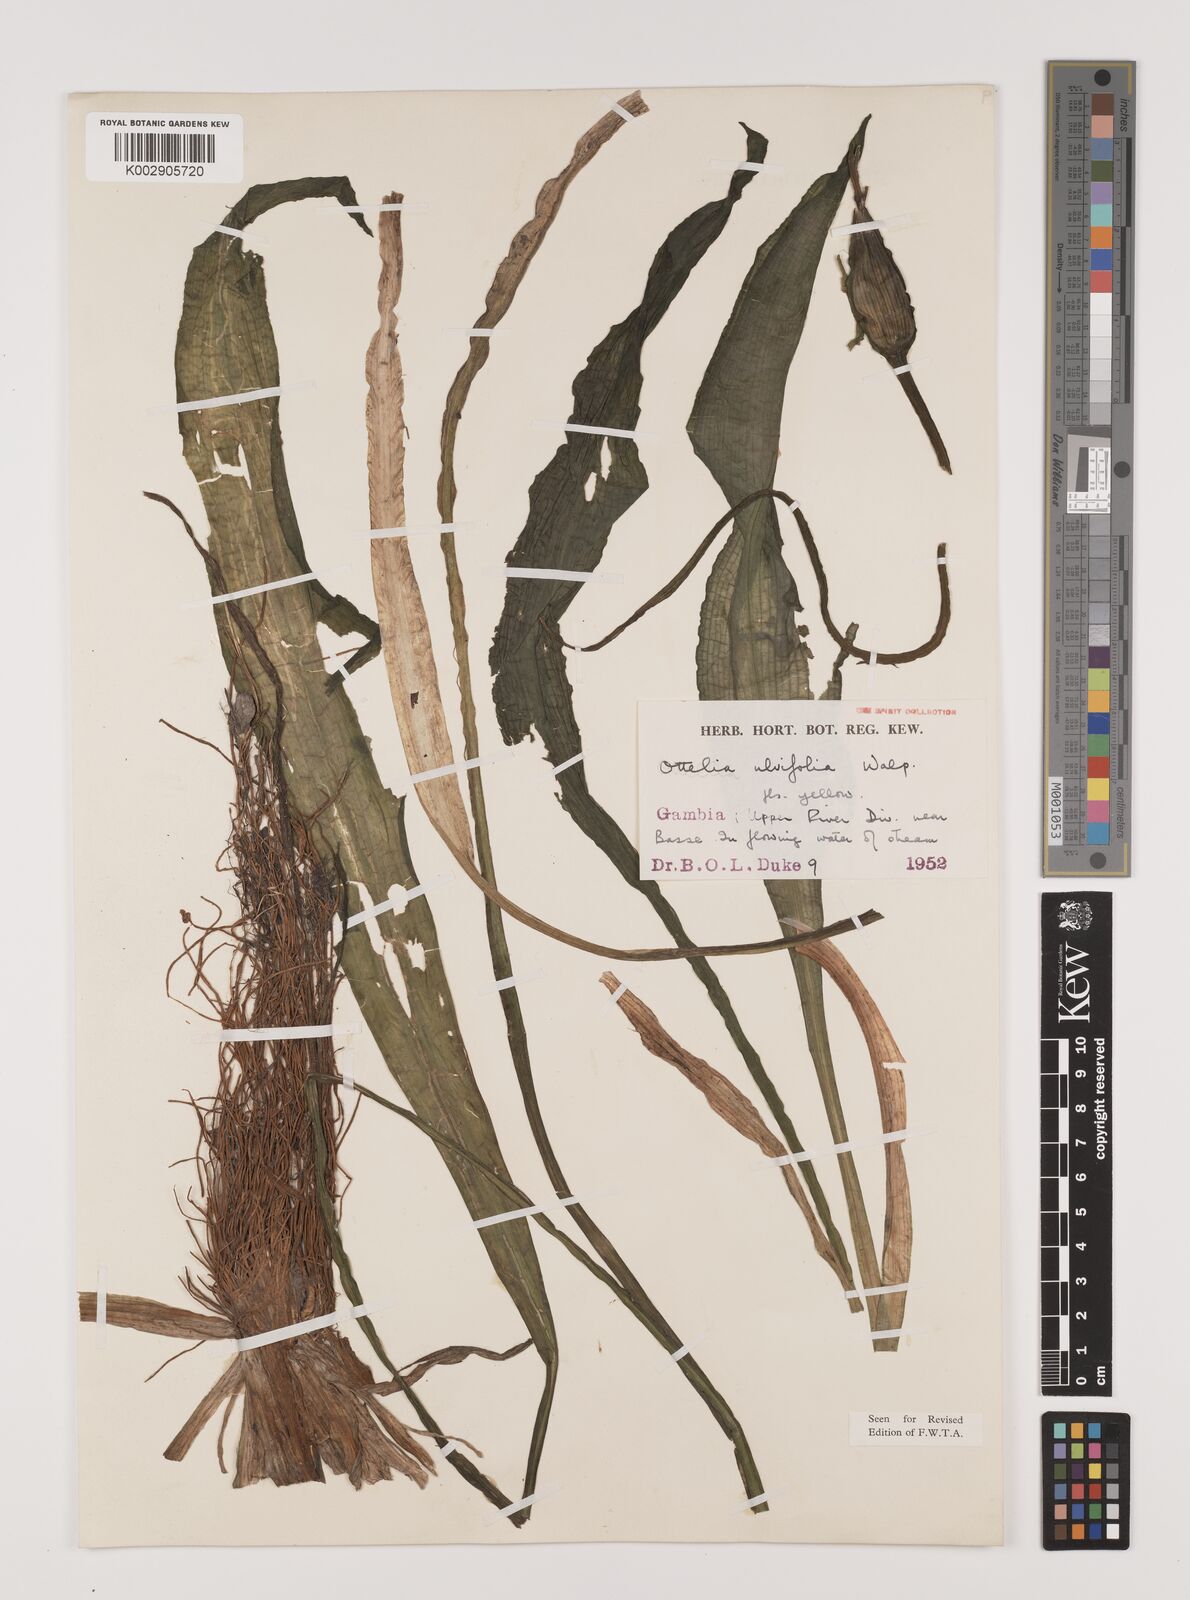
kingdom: Plantae
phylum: Tracheophyta
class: Liliopsida
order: Alismatales
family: Hydrocharitaceae
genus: Ottelia
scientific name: Ottelia ulvifolia
